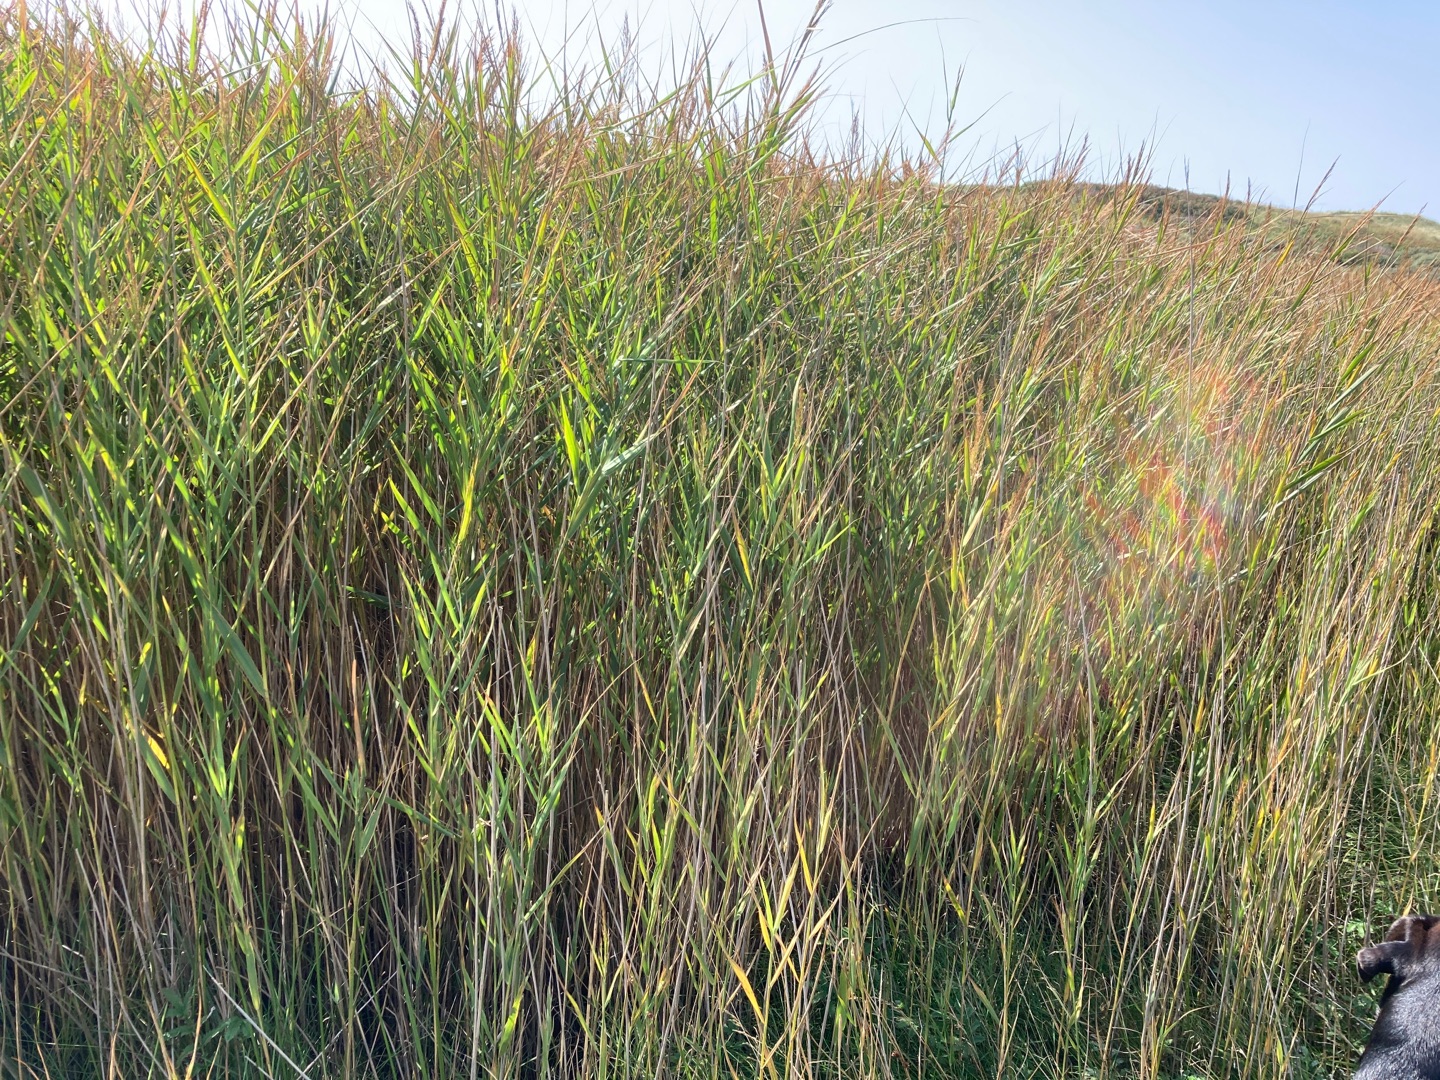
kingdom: Plantae
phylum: Tracheophyta
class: Liliopsida
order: Poales
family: Poaceae
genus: Phragmites
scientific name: Phragmites australis
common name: Tagrør
